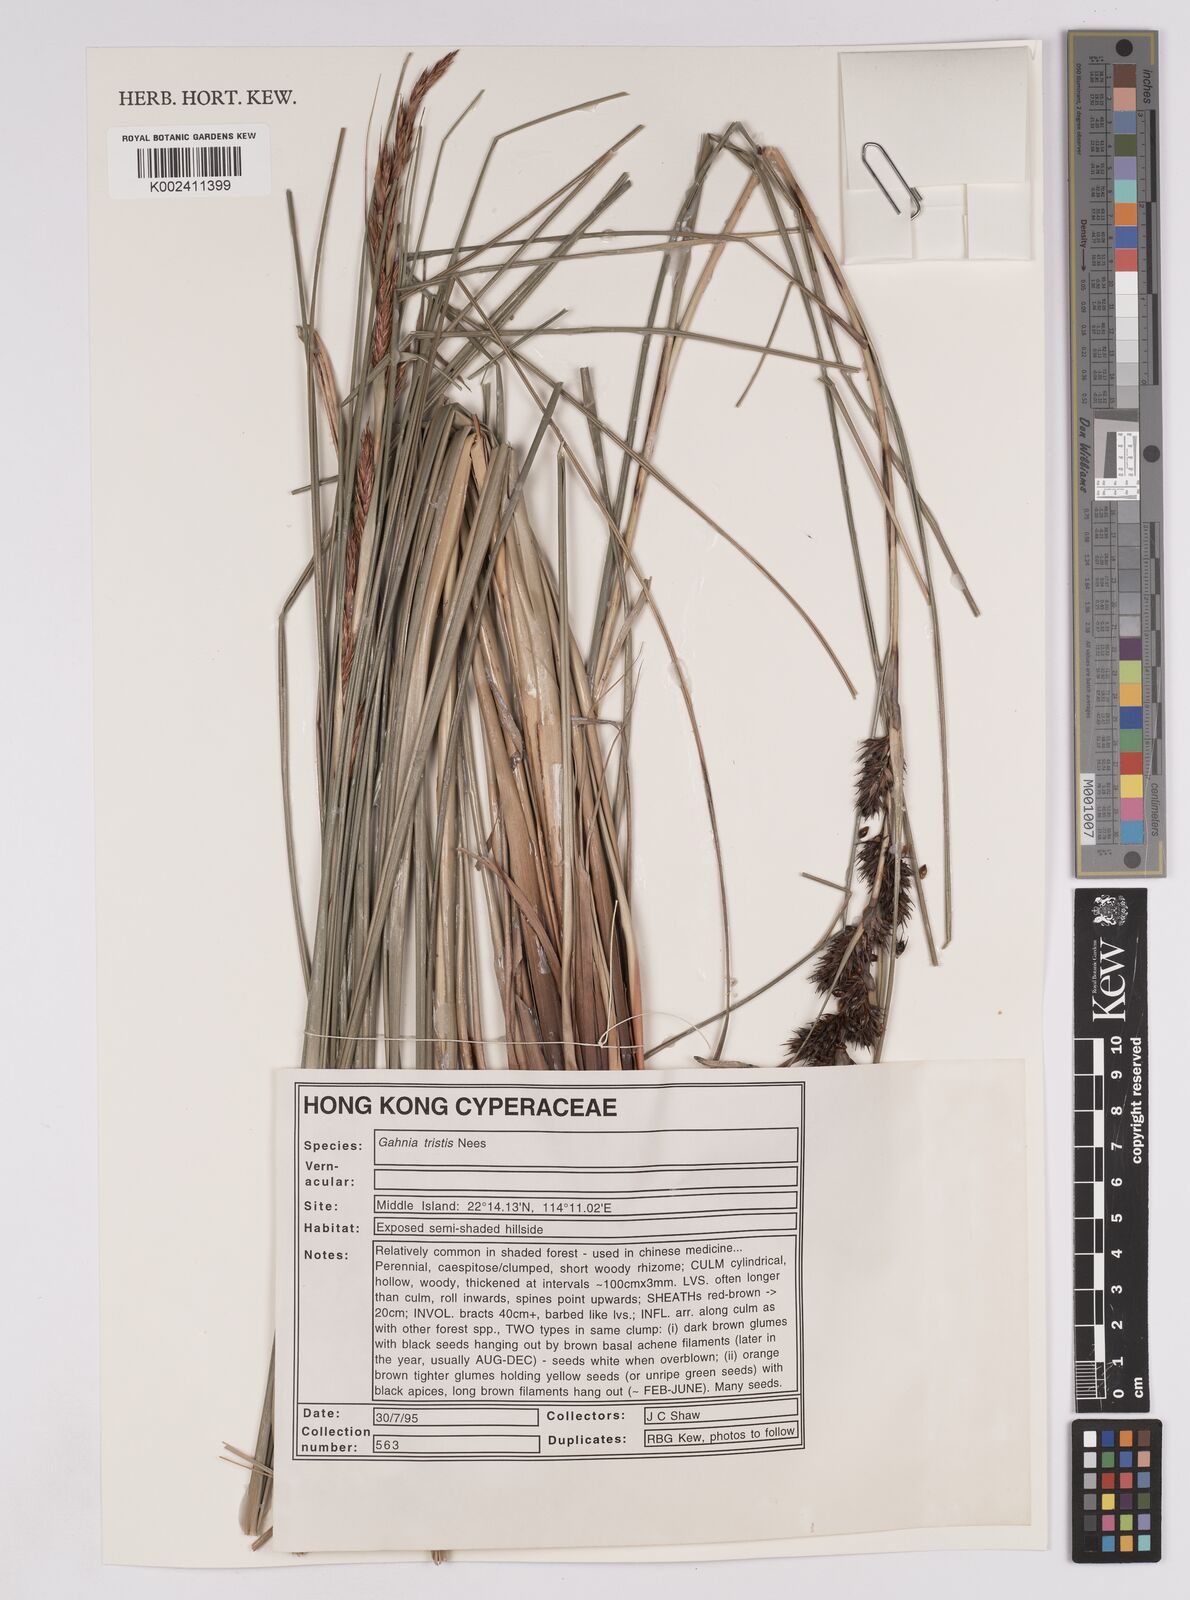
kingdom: Plantae
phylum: Tracheophyta
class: Liliopsida
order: Poales
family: Cyperaceae
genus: Gahnia
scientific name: Gahnia tristis
